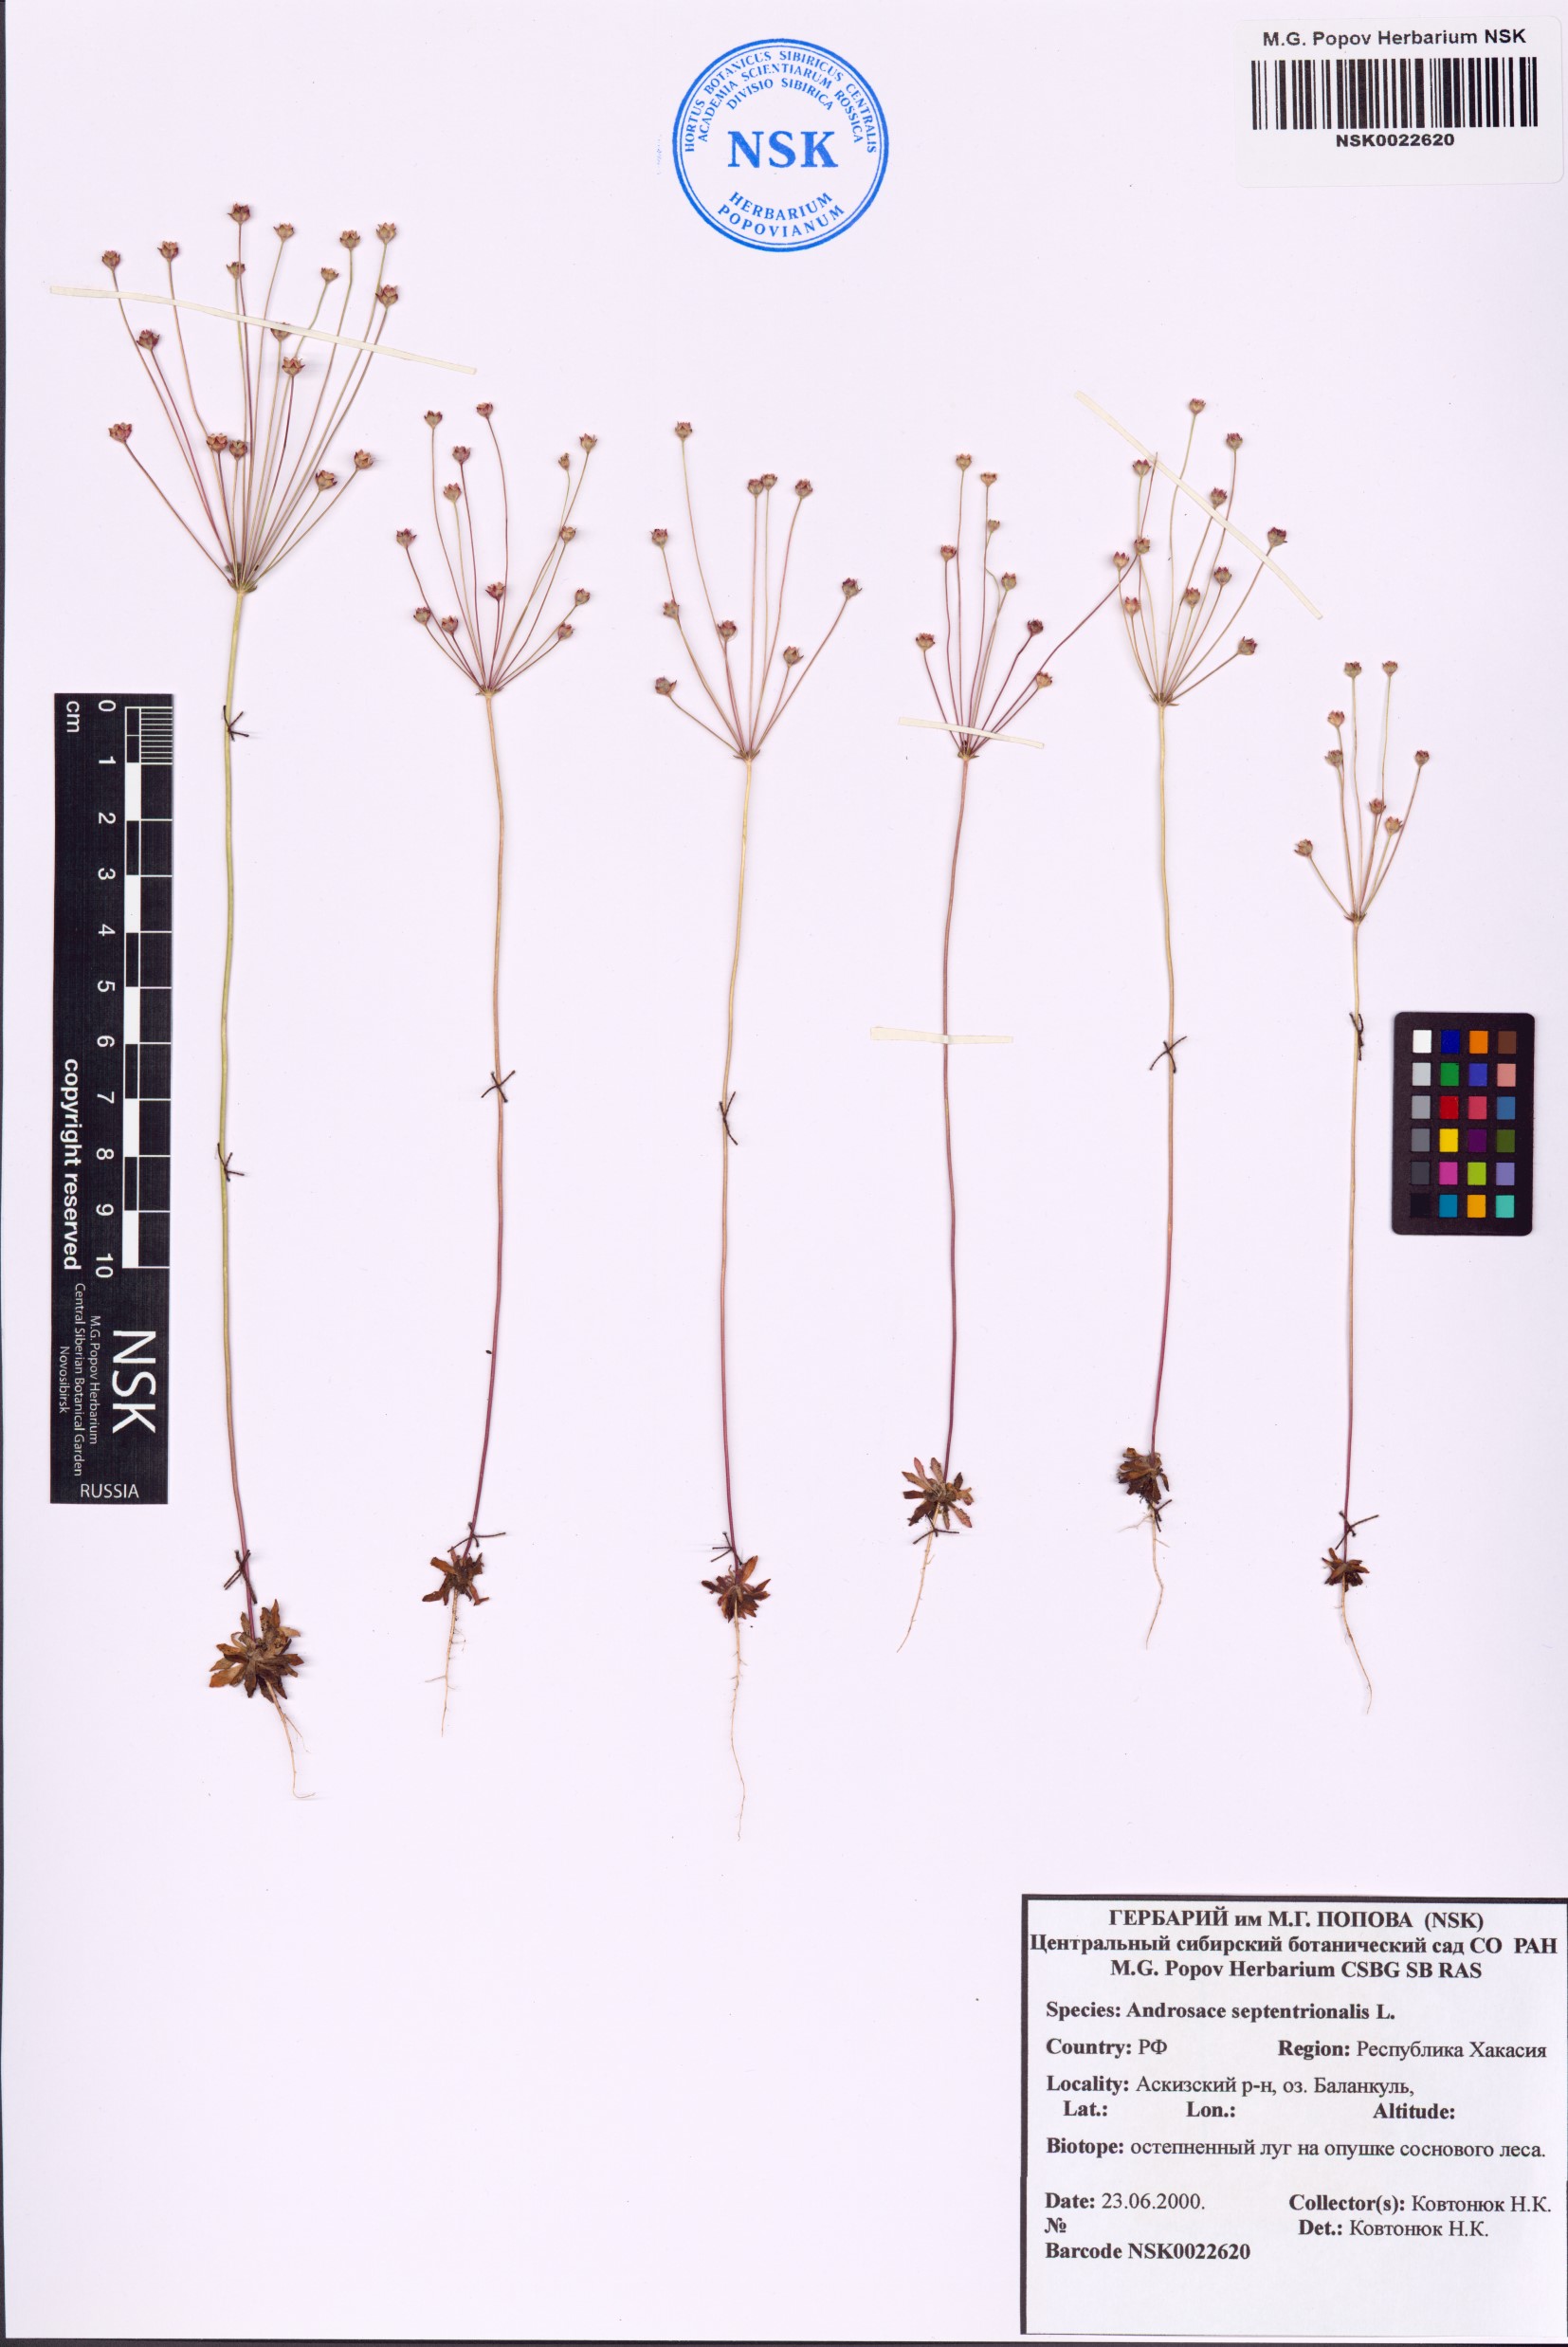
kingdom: Plantae
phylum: Tracheophyta
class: Magnoliopsida
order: Ericales
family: Primulaceae
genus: Androsace
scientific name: Androsace septentrionalis
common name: Hairy northern fairy-candelabra
